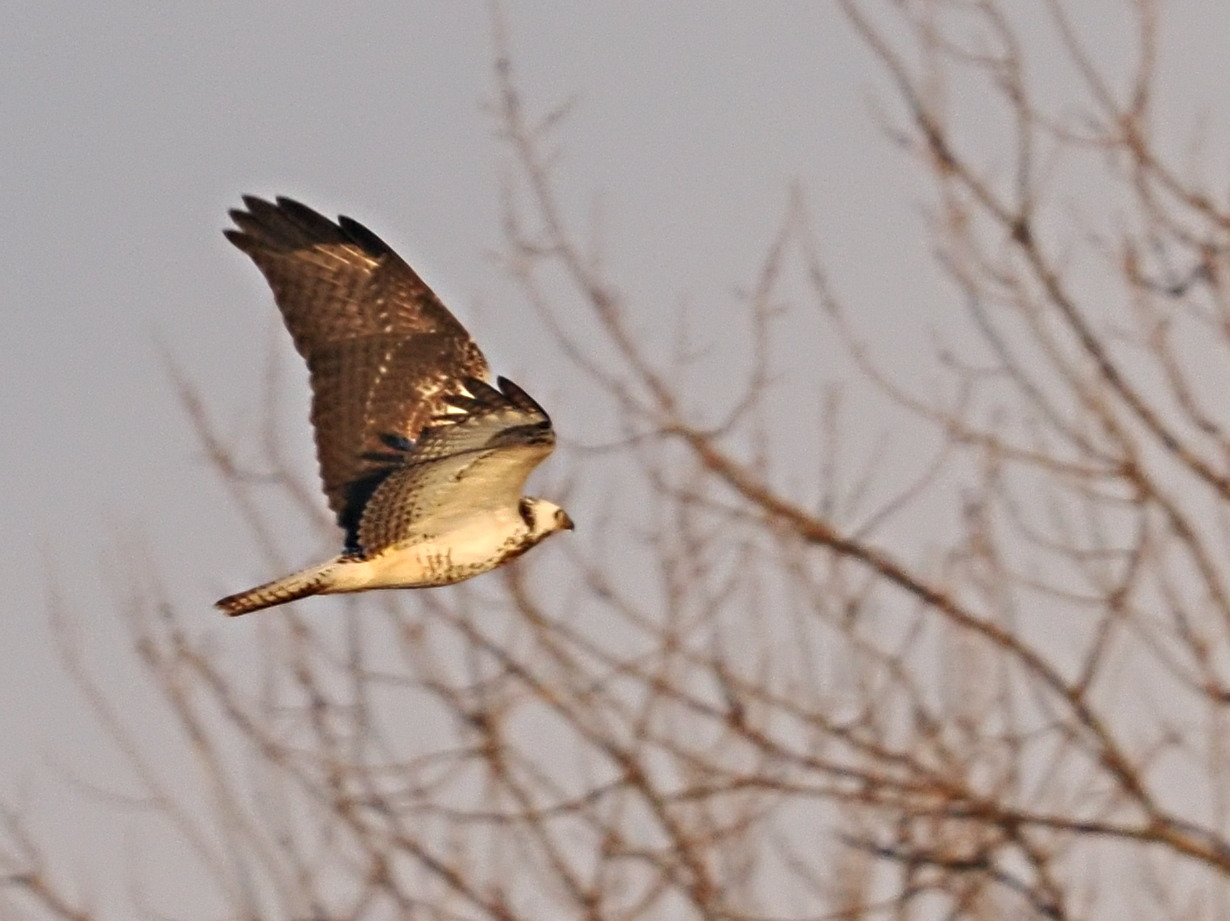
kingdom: Animalia
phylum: Chordata
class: Aves
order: Accipitriformes
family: Accipitridae
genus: Buteo
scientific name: Buteo buteo
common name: Musvåge
